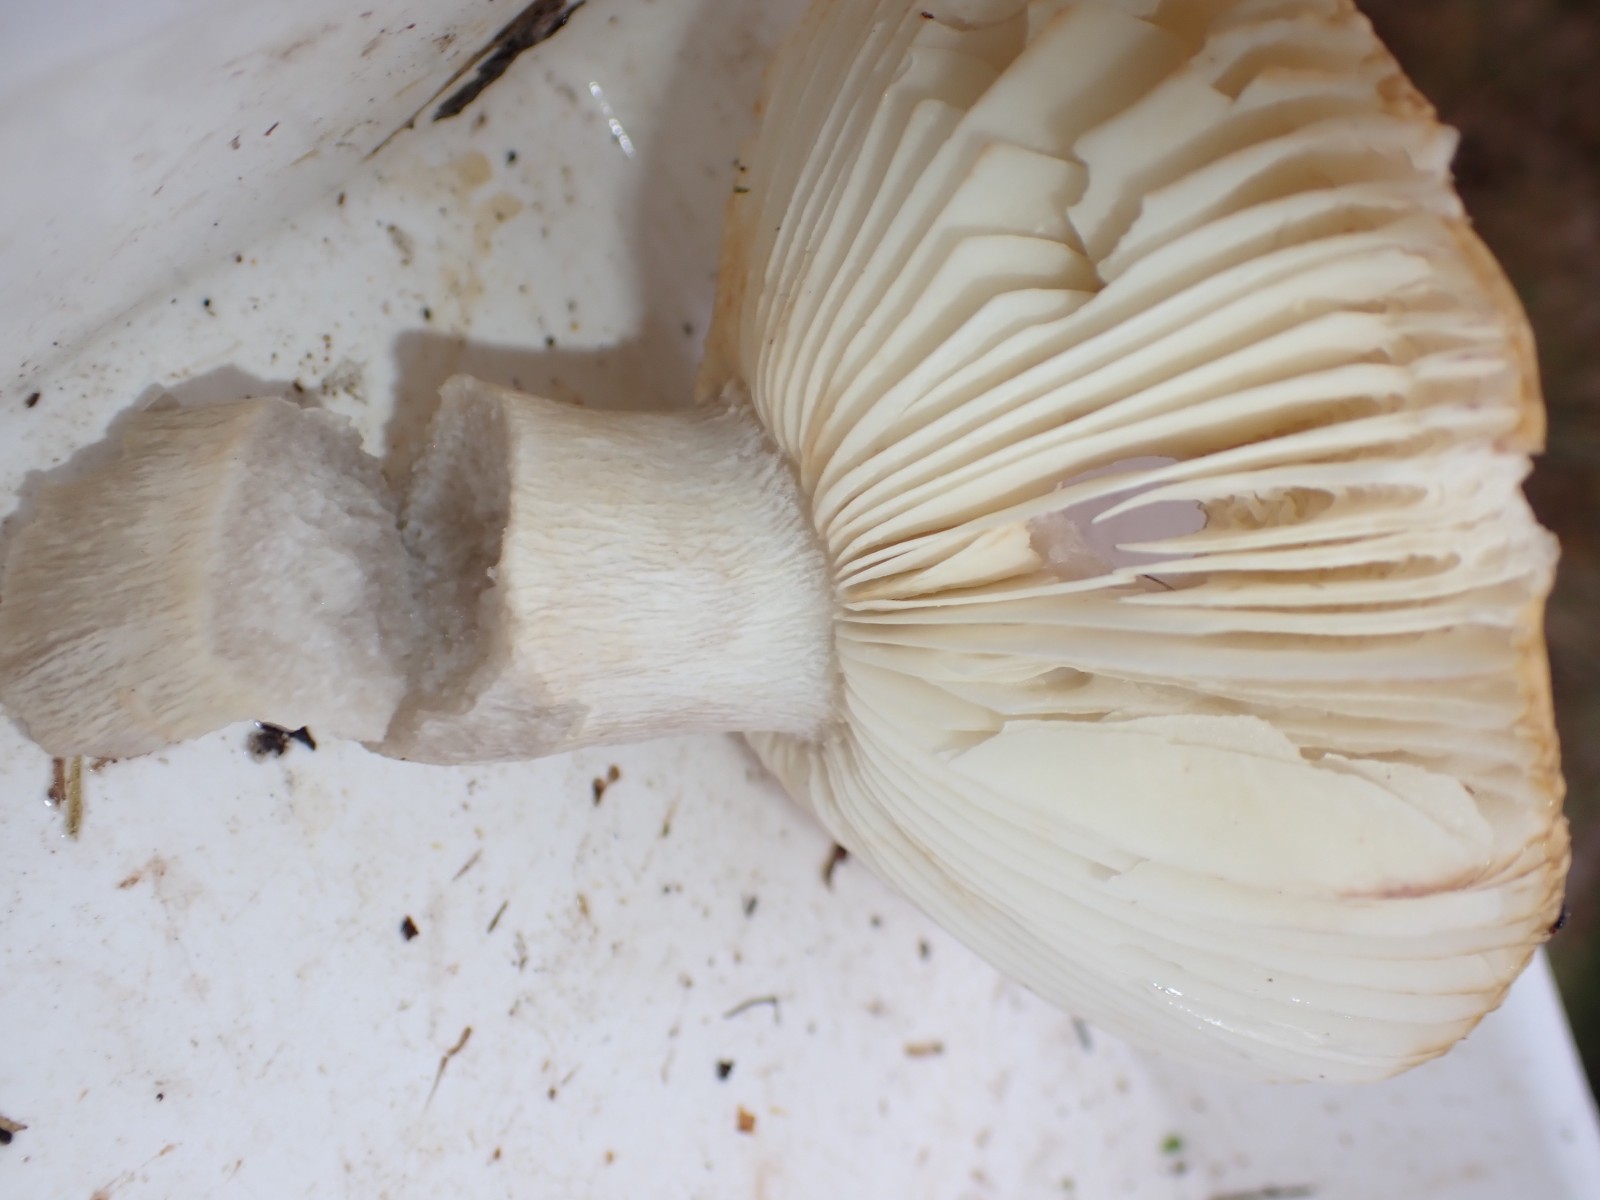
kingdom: Fungi
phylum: Basidiomycota
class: Agaricomycetes
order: Russulales
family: Russulaceae
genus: Russula
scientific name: Russula ochroleuca
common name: okkergul skørhat
